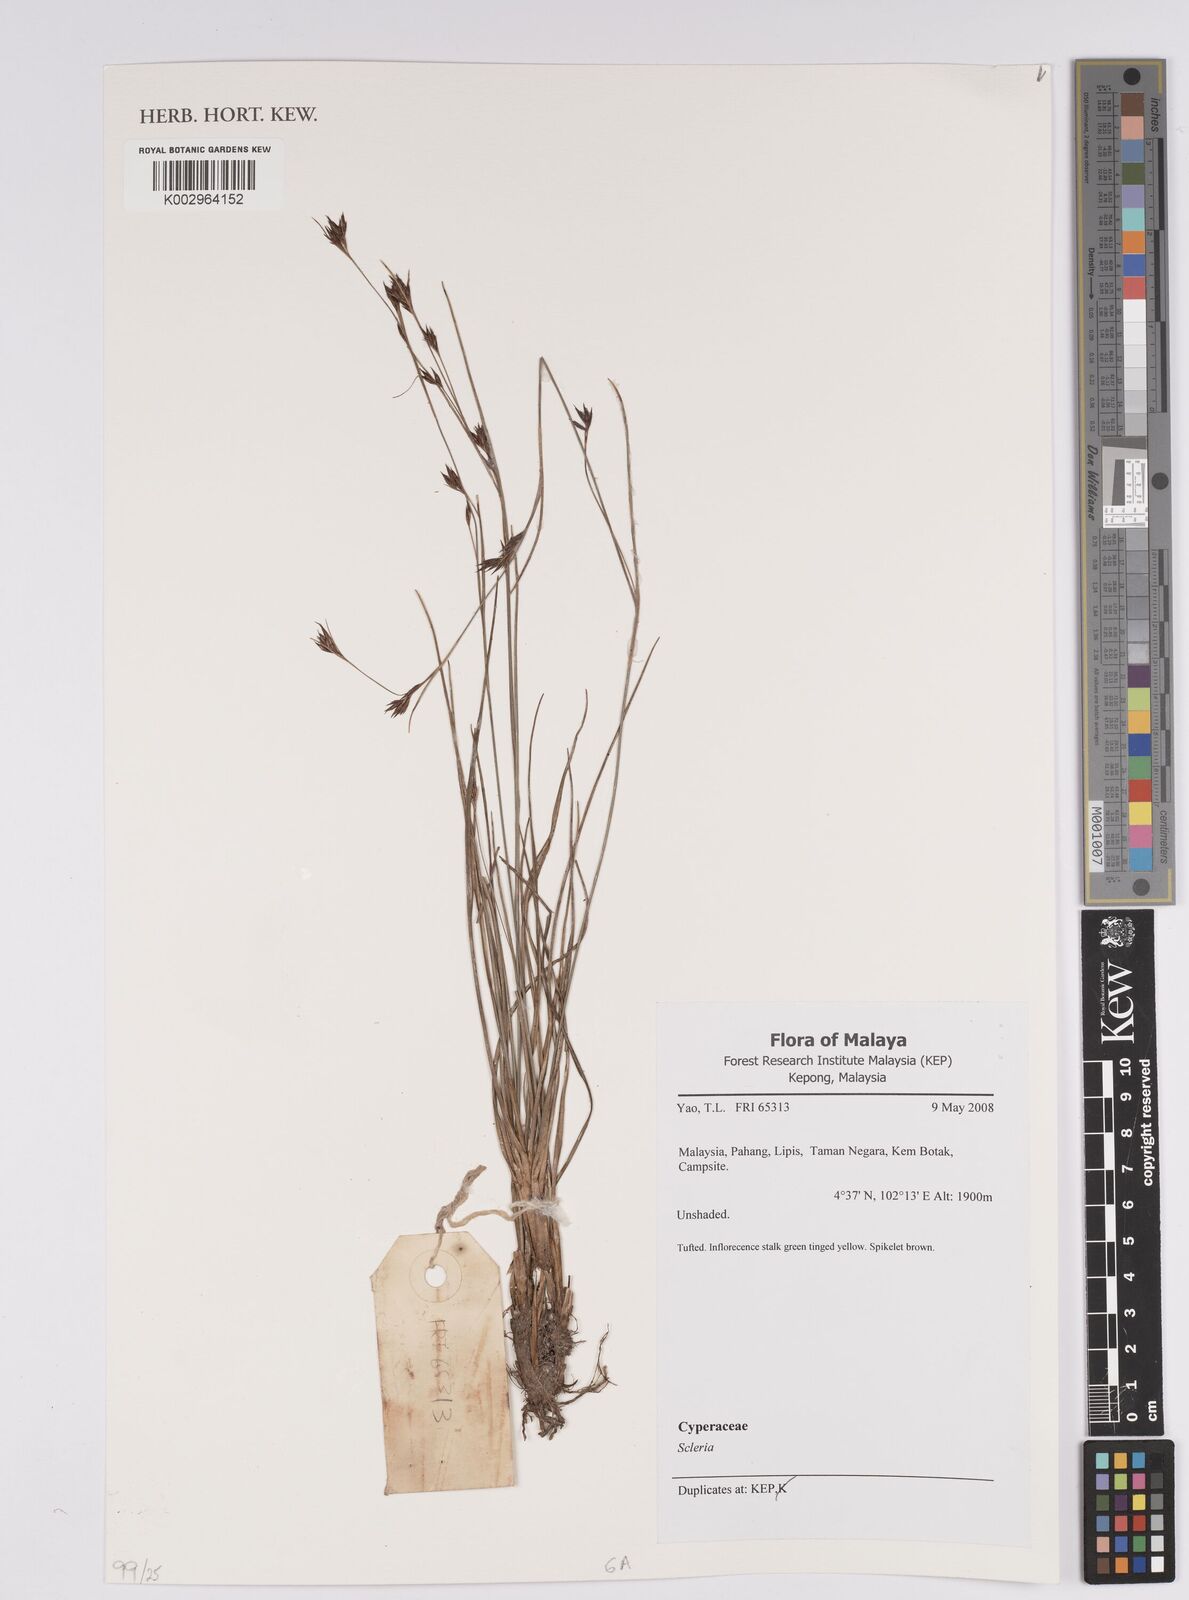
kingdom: Plantae
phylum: Tracheophyta
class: Liliopsida
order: Poales
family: Cyperaceae
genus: Scleria
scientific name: Scleria
